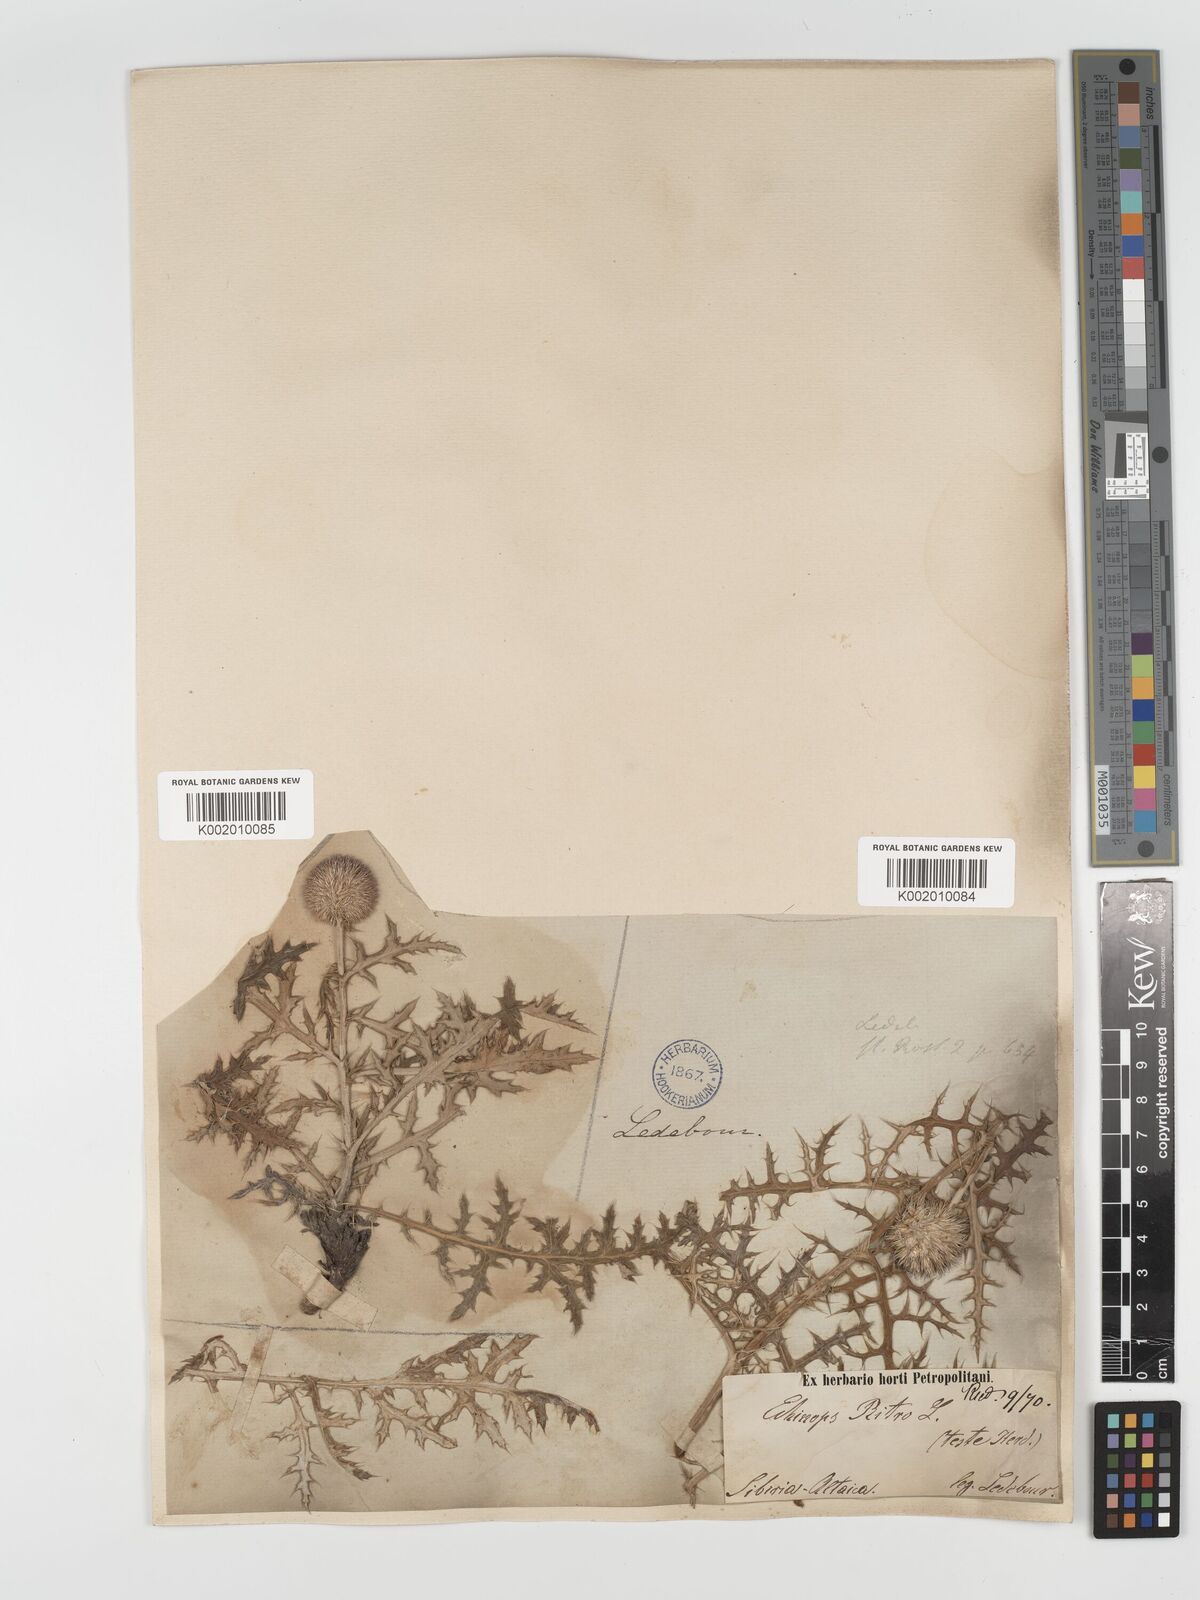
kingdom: Plantae
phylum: Tracheophyta
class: Magnoliopsida
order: Asterales
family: Asteraceae
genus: Echinops
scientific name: Echinops bannaticus
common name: Blue globe-thistle
